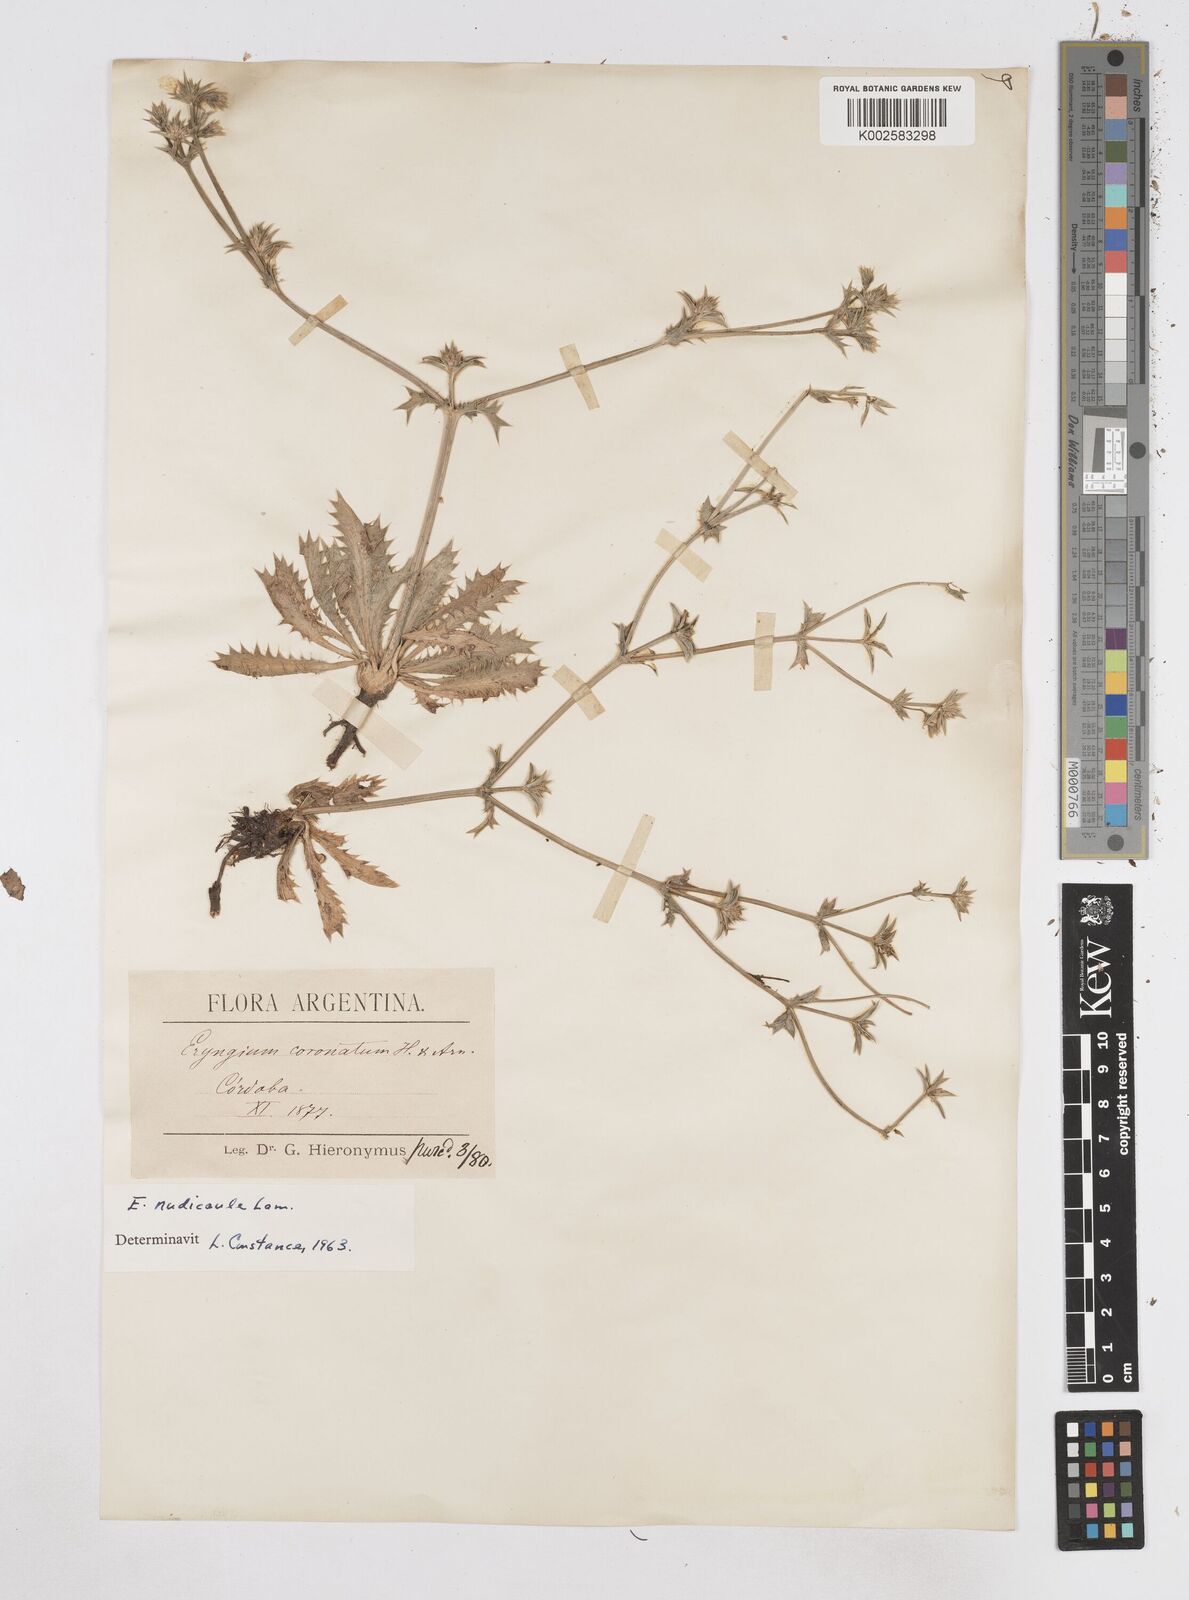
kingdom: Plantae
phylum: Tracheophyta
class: Magnoliopsida
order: Apiales
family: Apiaceae
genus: Eryngium
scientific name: Eryngium nudicaule
